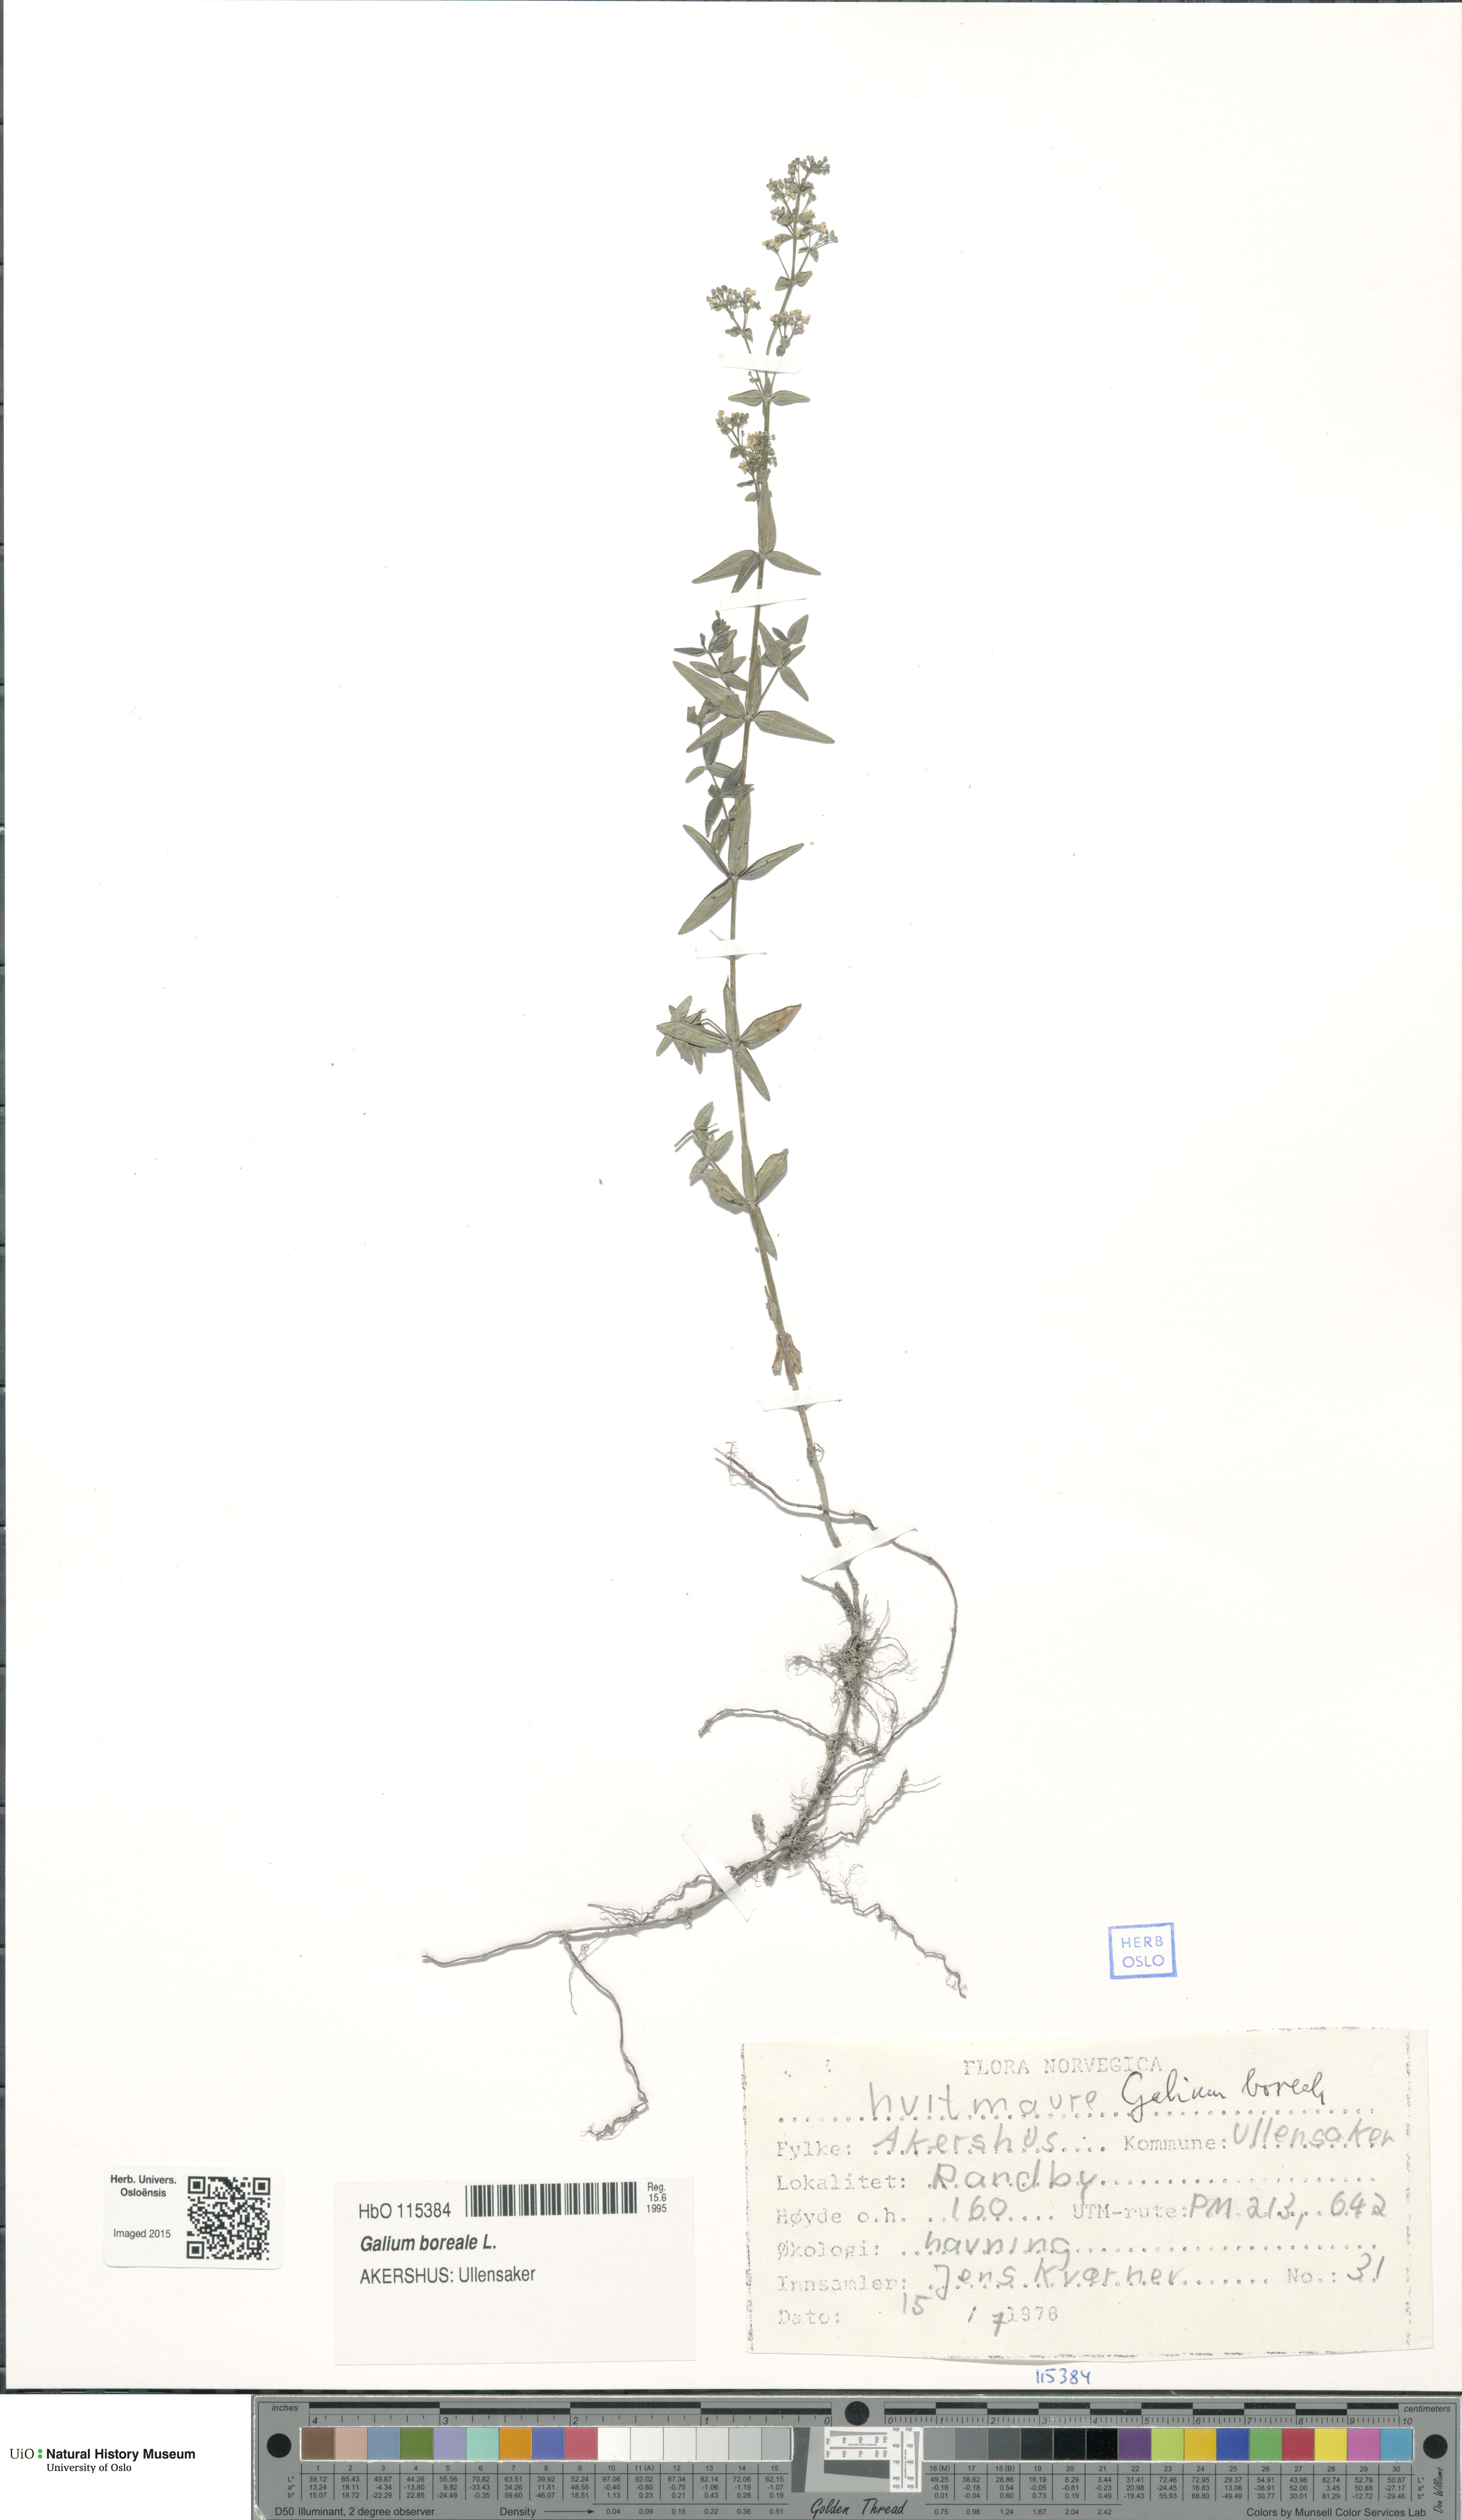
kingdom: Plantae
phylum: Tracheophyta
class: Magnoliopsida
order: Gentianales
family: Rubiaceae
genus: Galium
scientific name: Galium boreale
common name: Northern bedstraw
